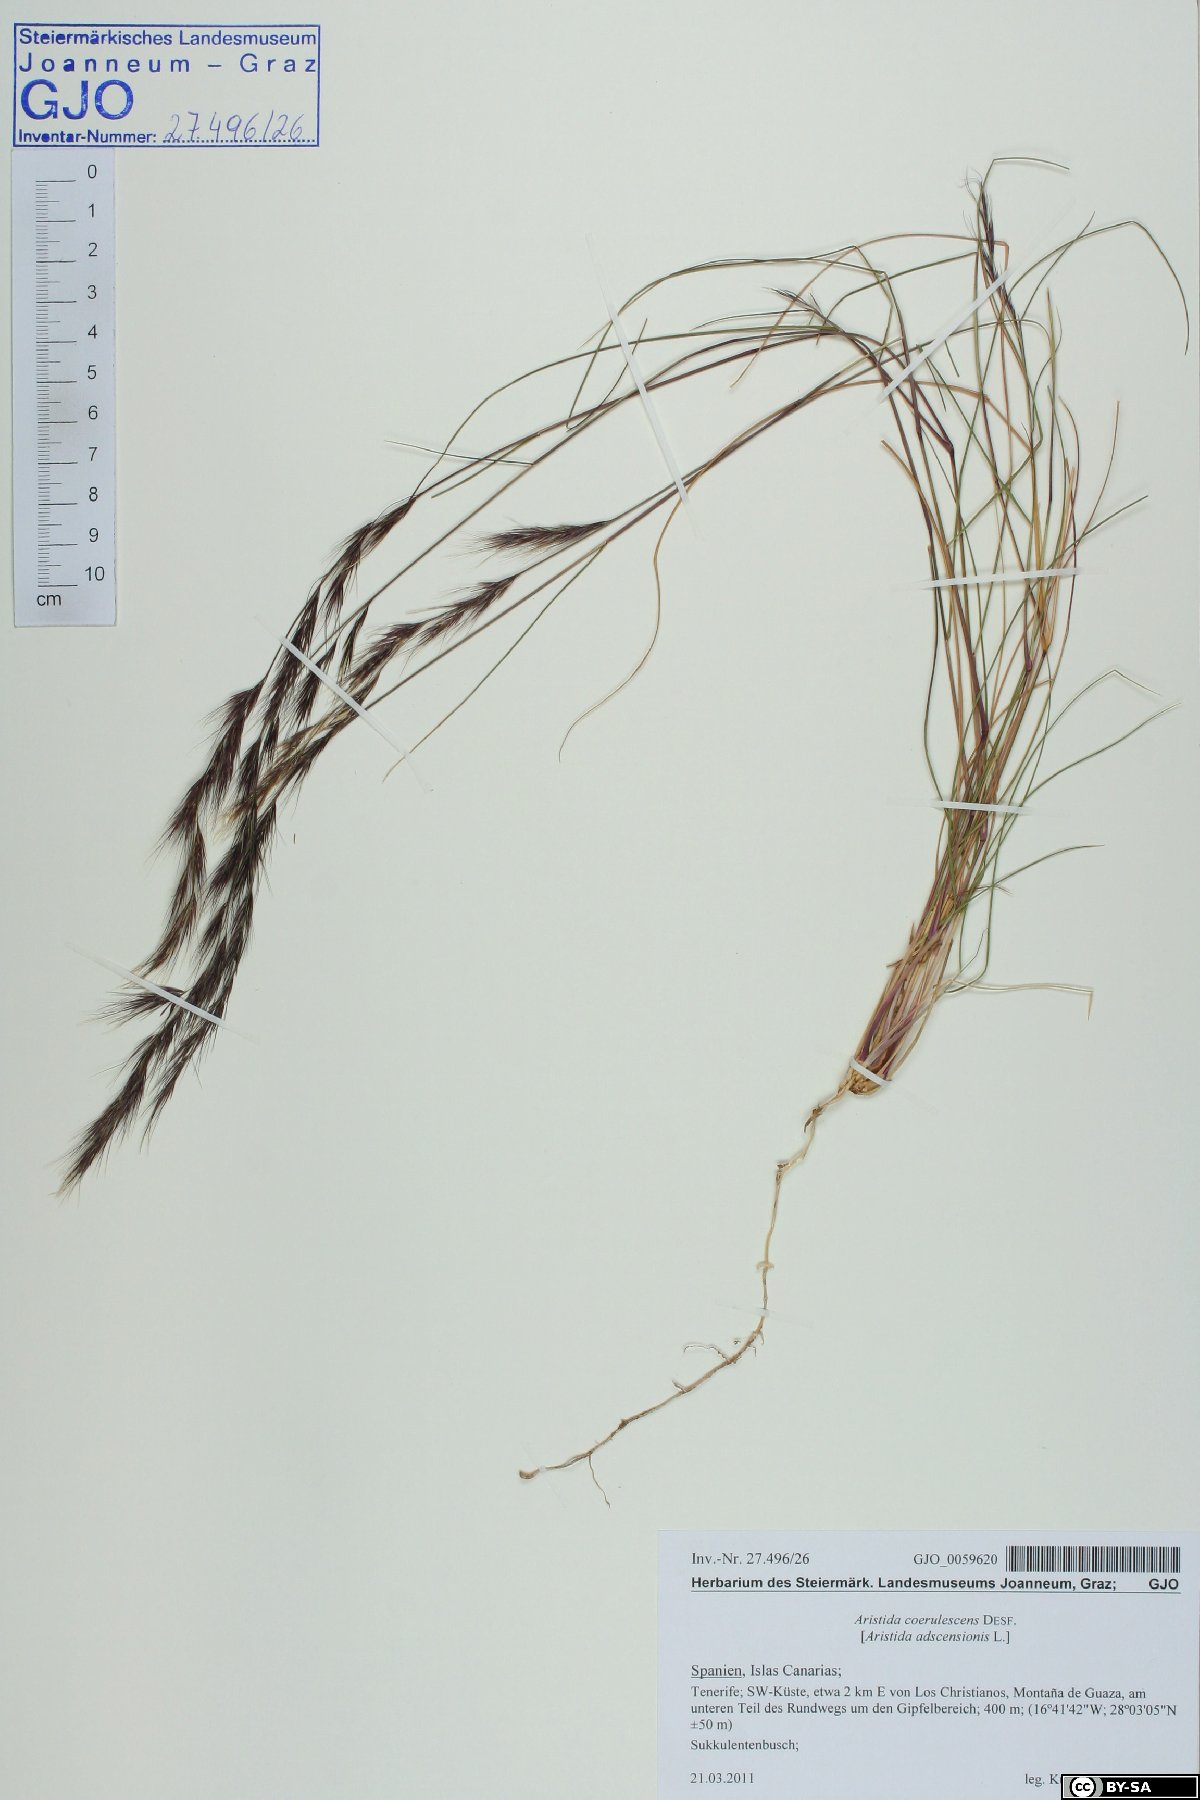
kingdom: Plantae
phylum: Tracheophyta
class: Liliopsida
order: Poales
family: Poaceae
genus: Aristida
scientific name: Aristida adscensionis
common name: Sixweeks threeawn
